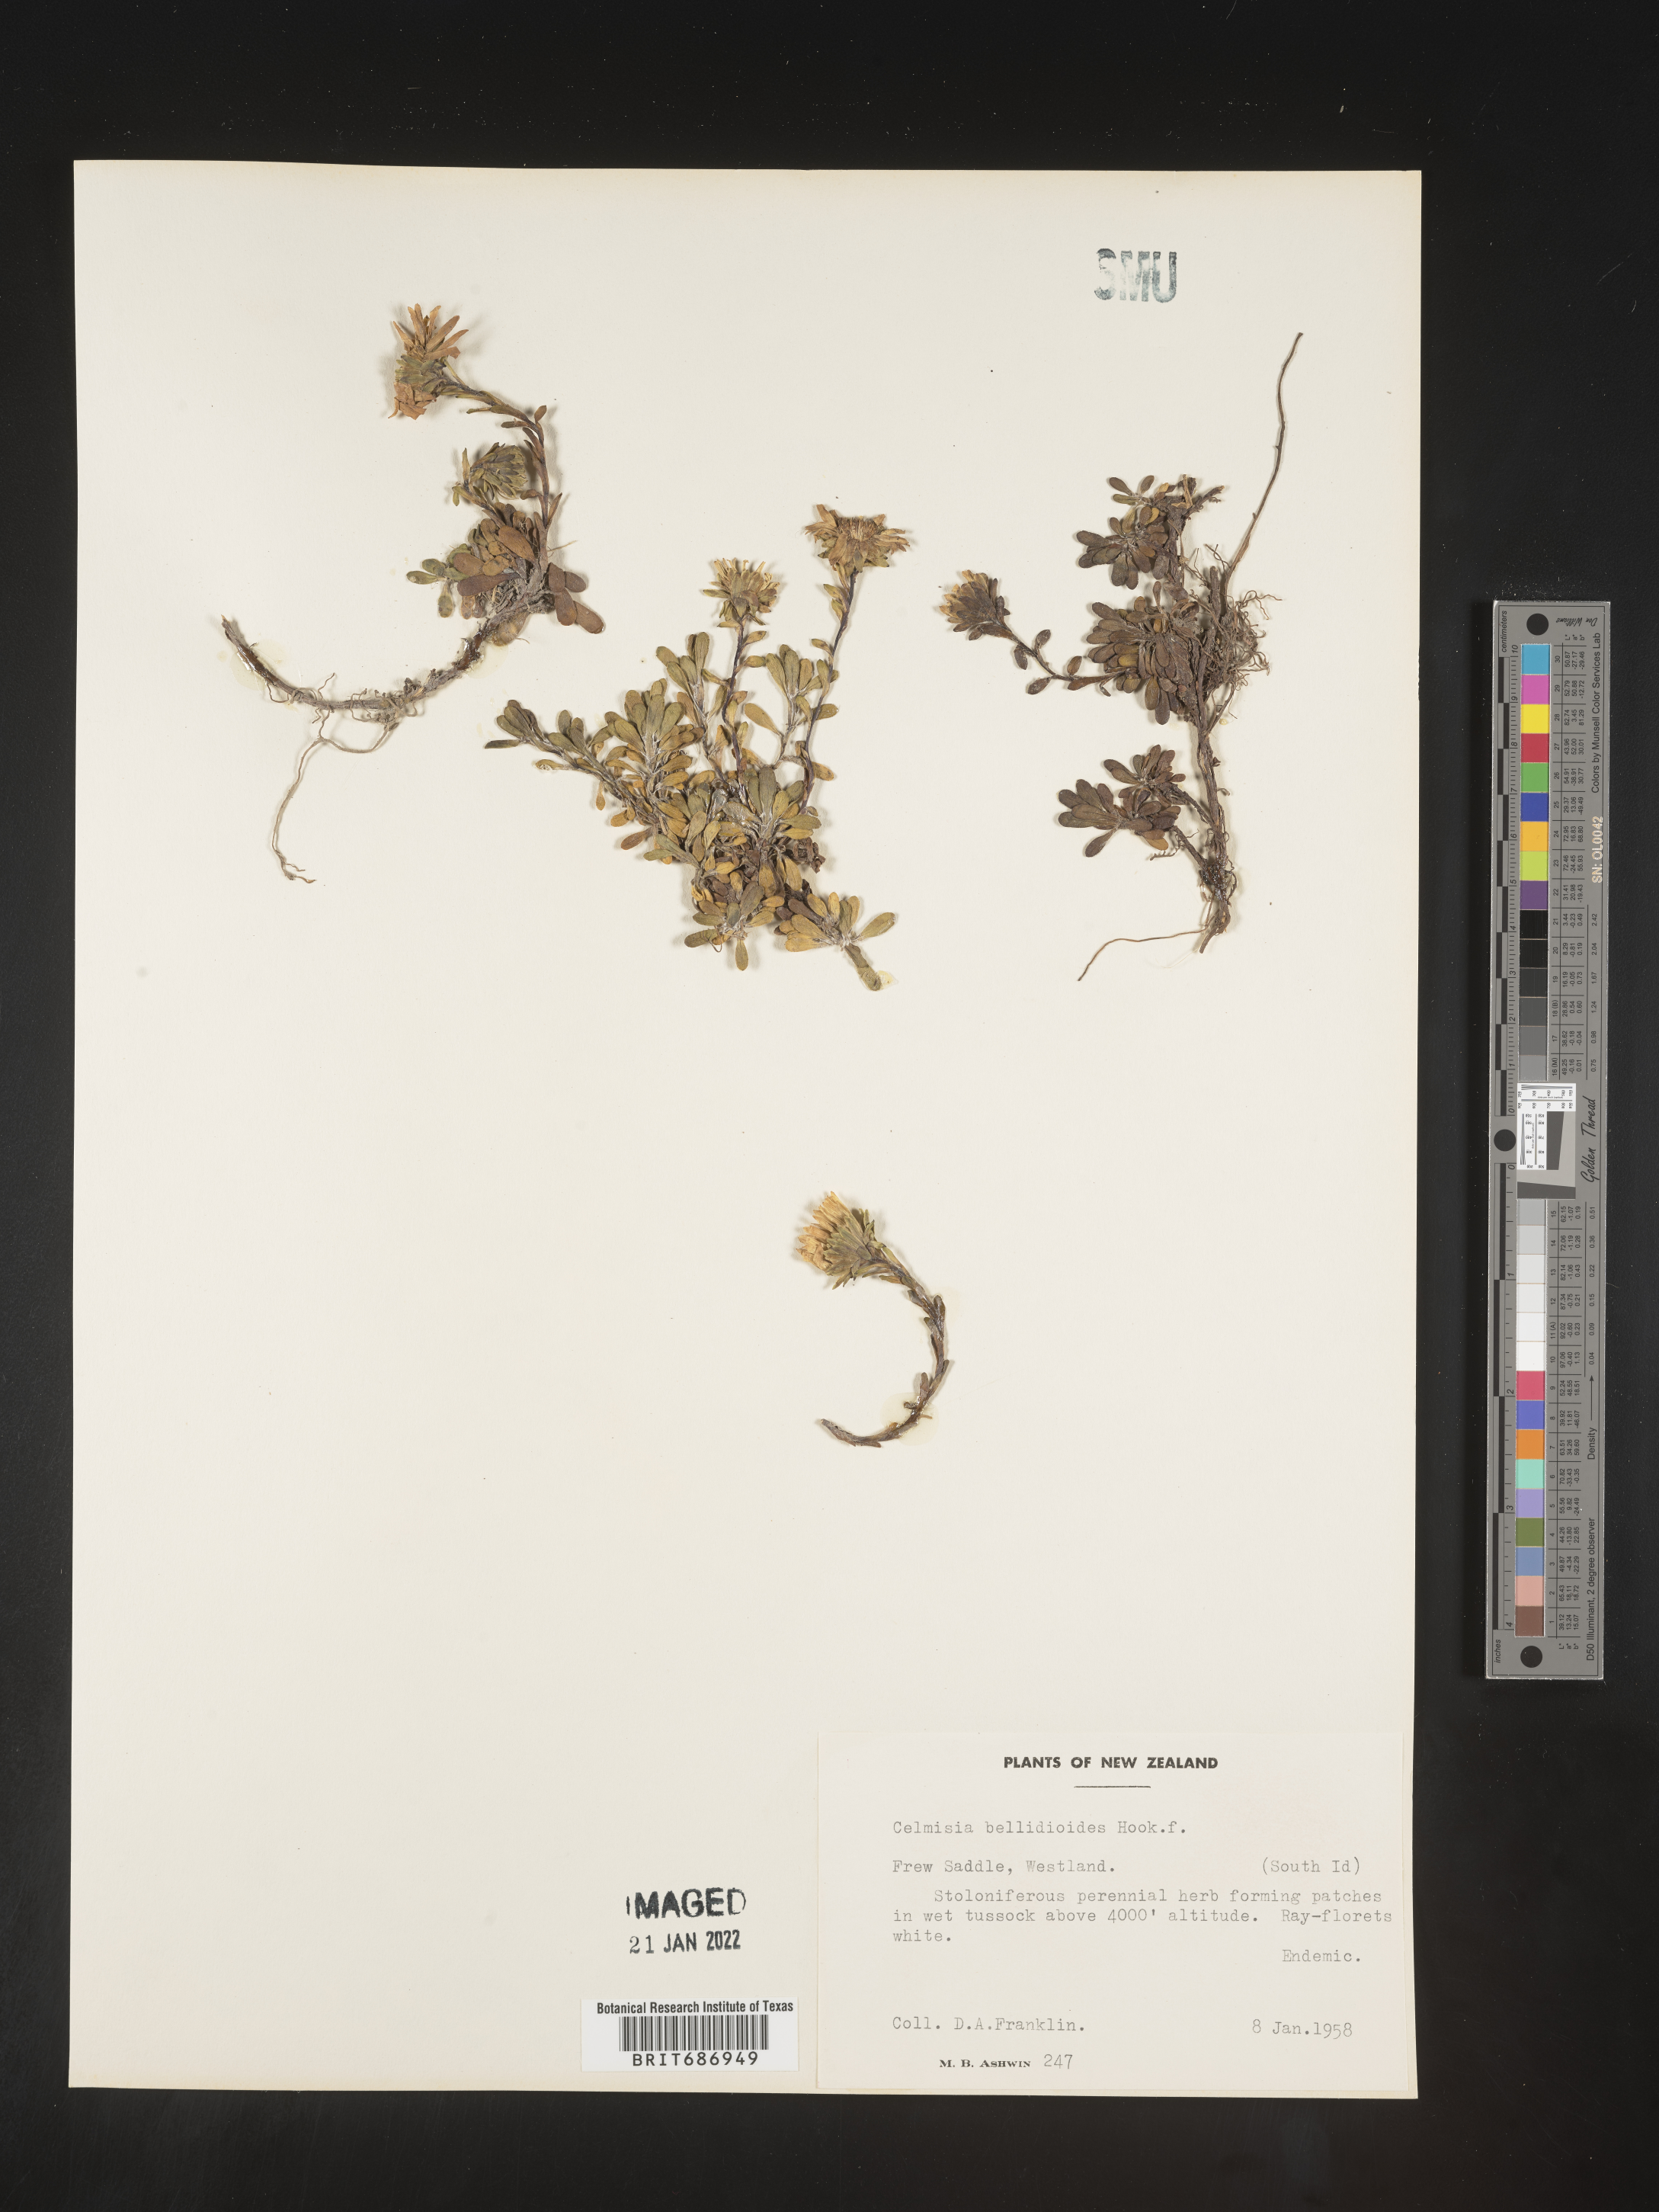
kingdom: Plantae
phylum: Tracheophyta
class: Magnoliopsida
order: Asterales
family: Asteraceae
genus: Celmisia
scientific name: Celmisia
